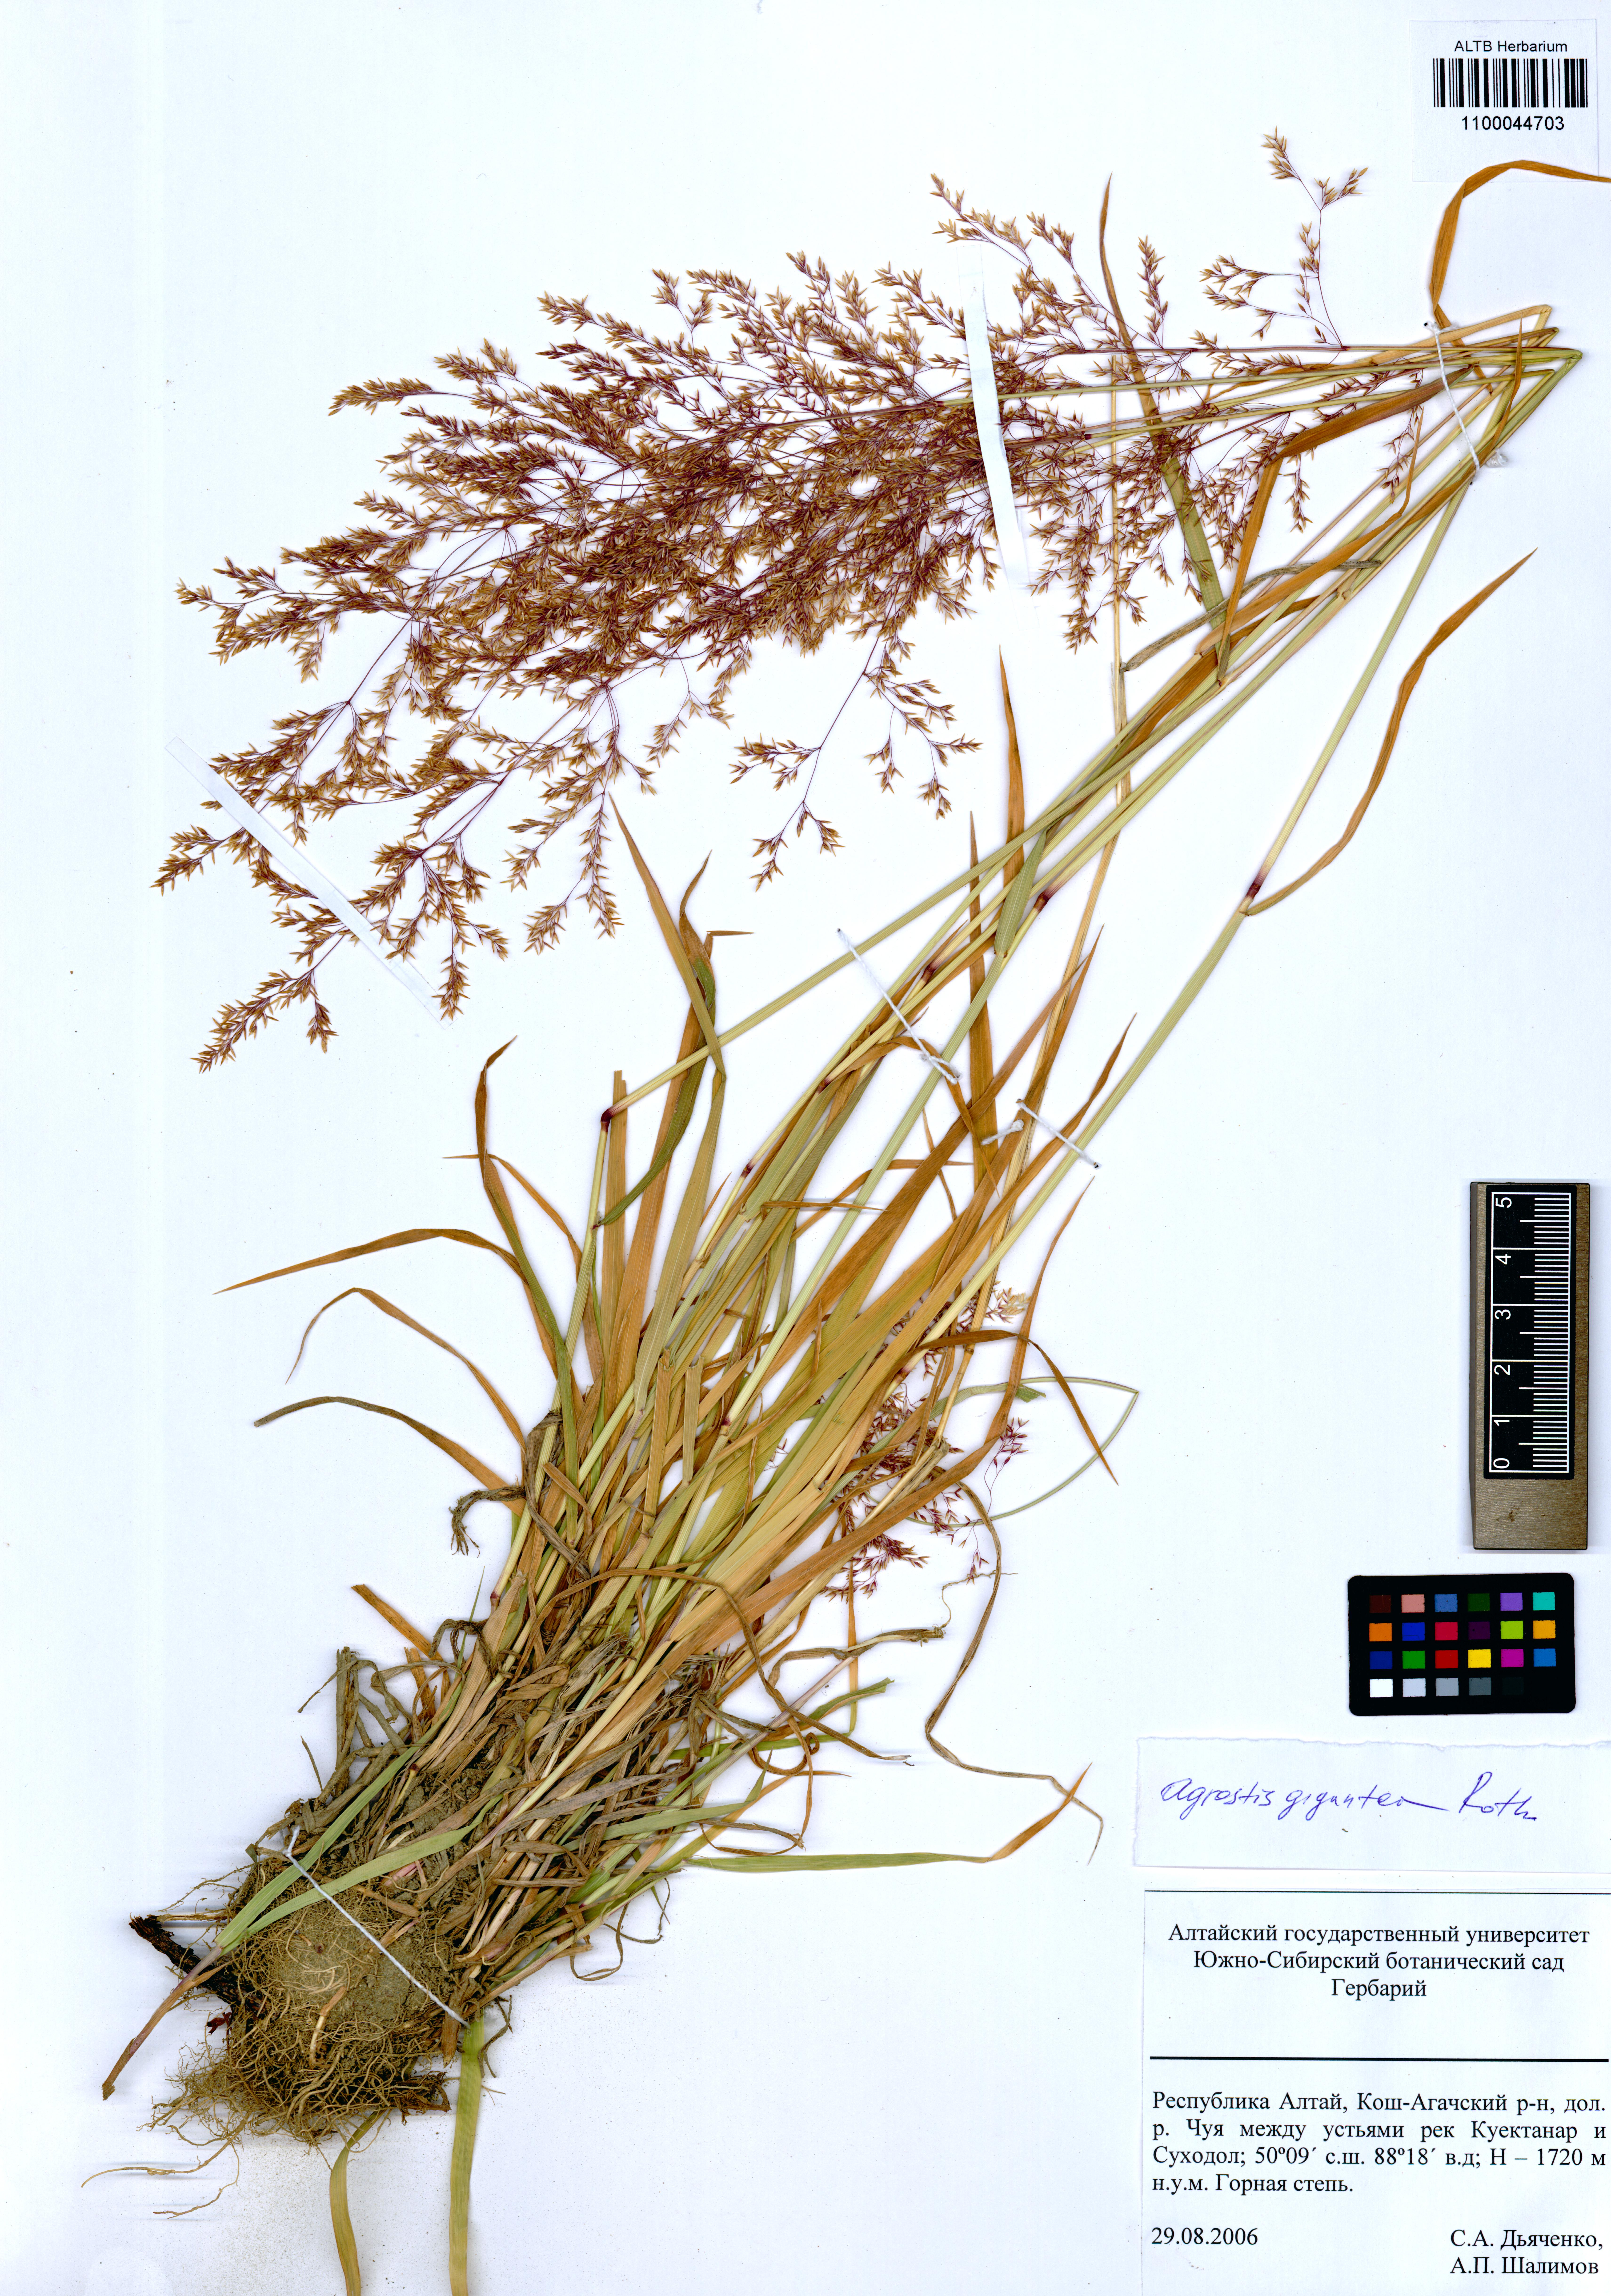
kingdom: Plantae
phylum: Tracheophyta
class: Liliopsida
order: Poales
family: Poaceae
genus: Agrostis
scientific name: Agrostis gigantea
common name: Black bent
